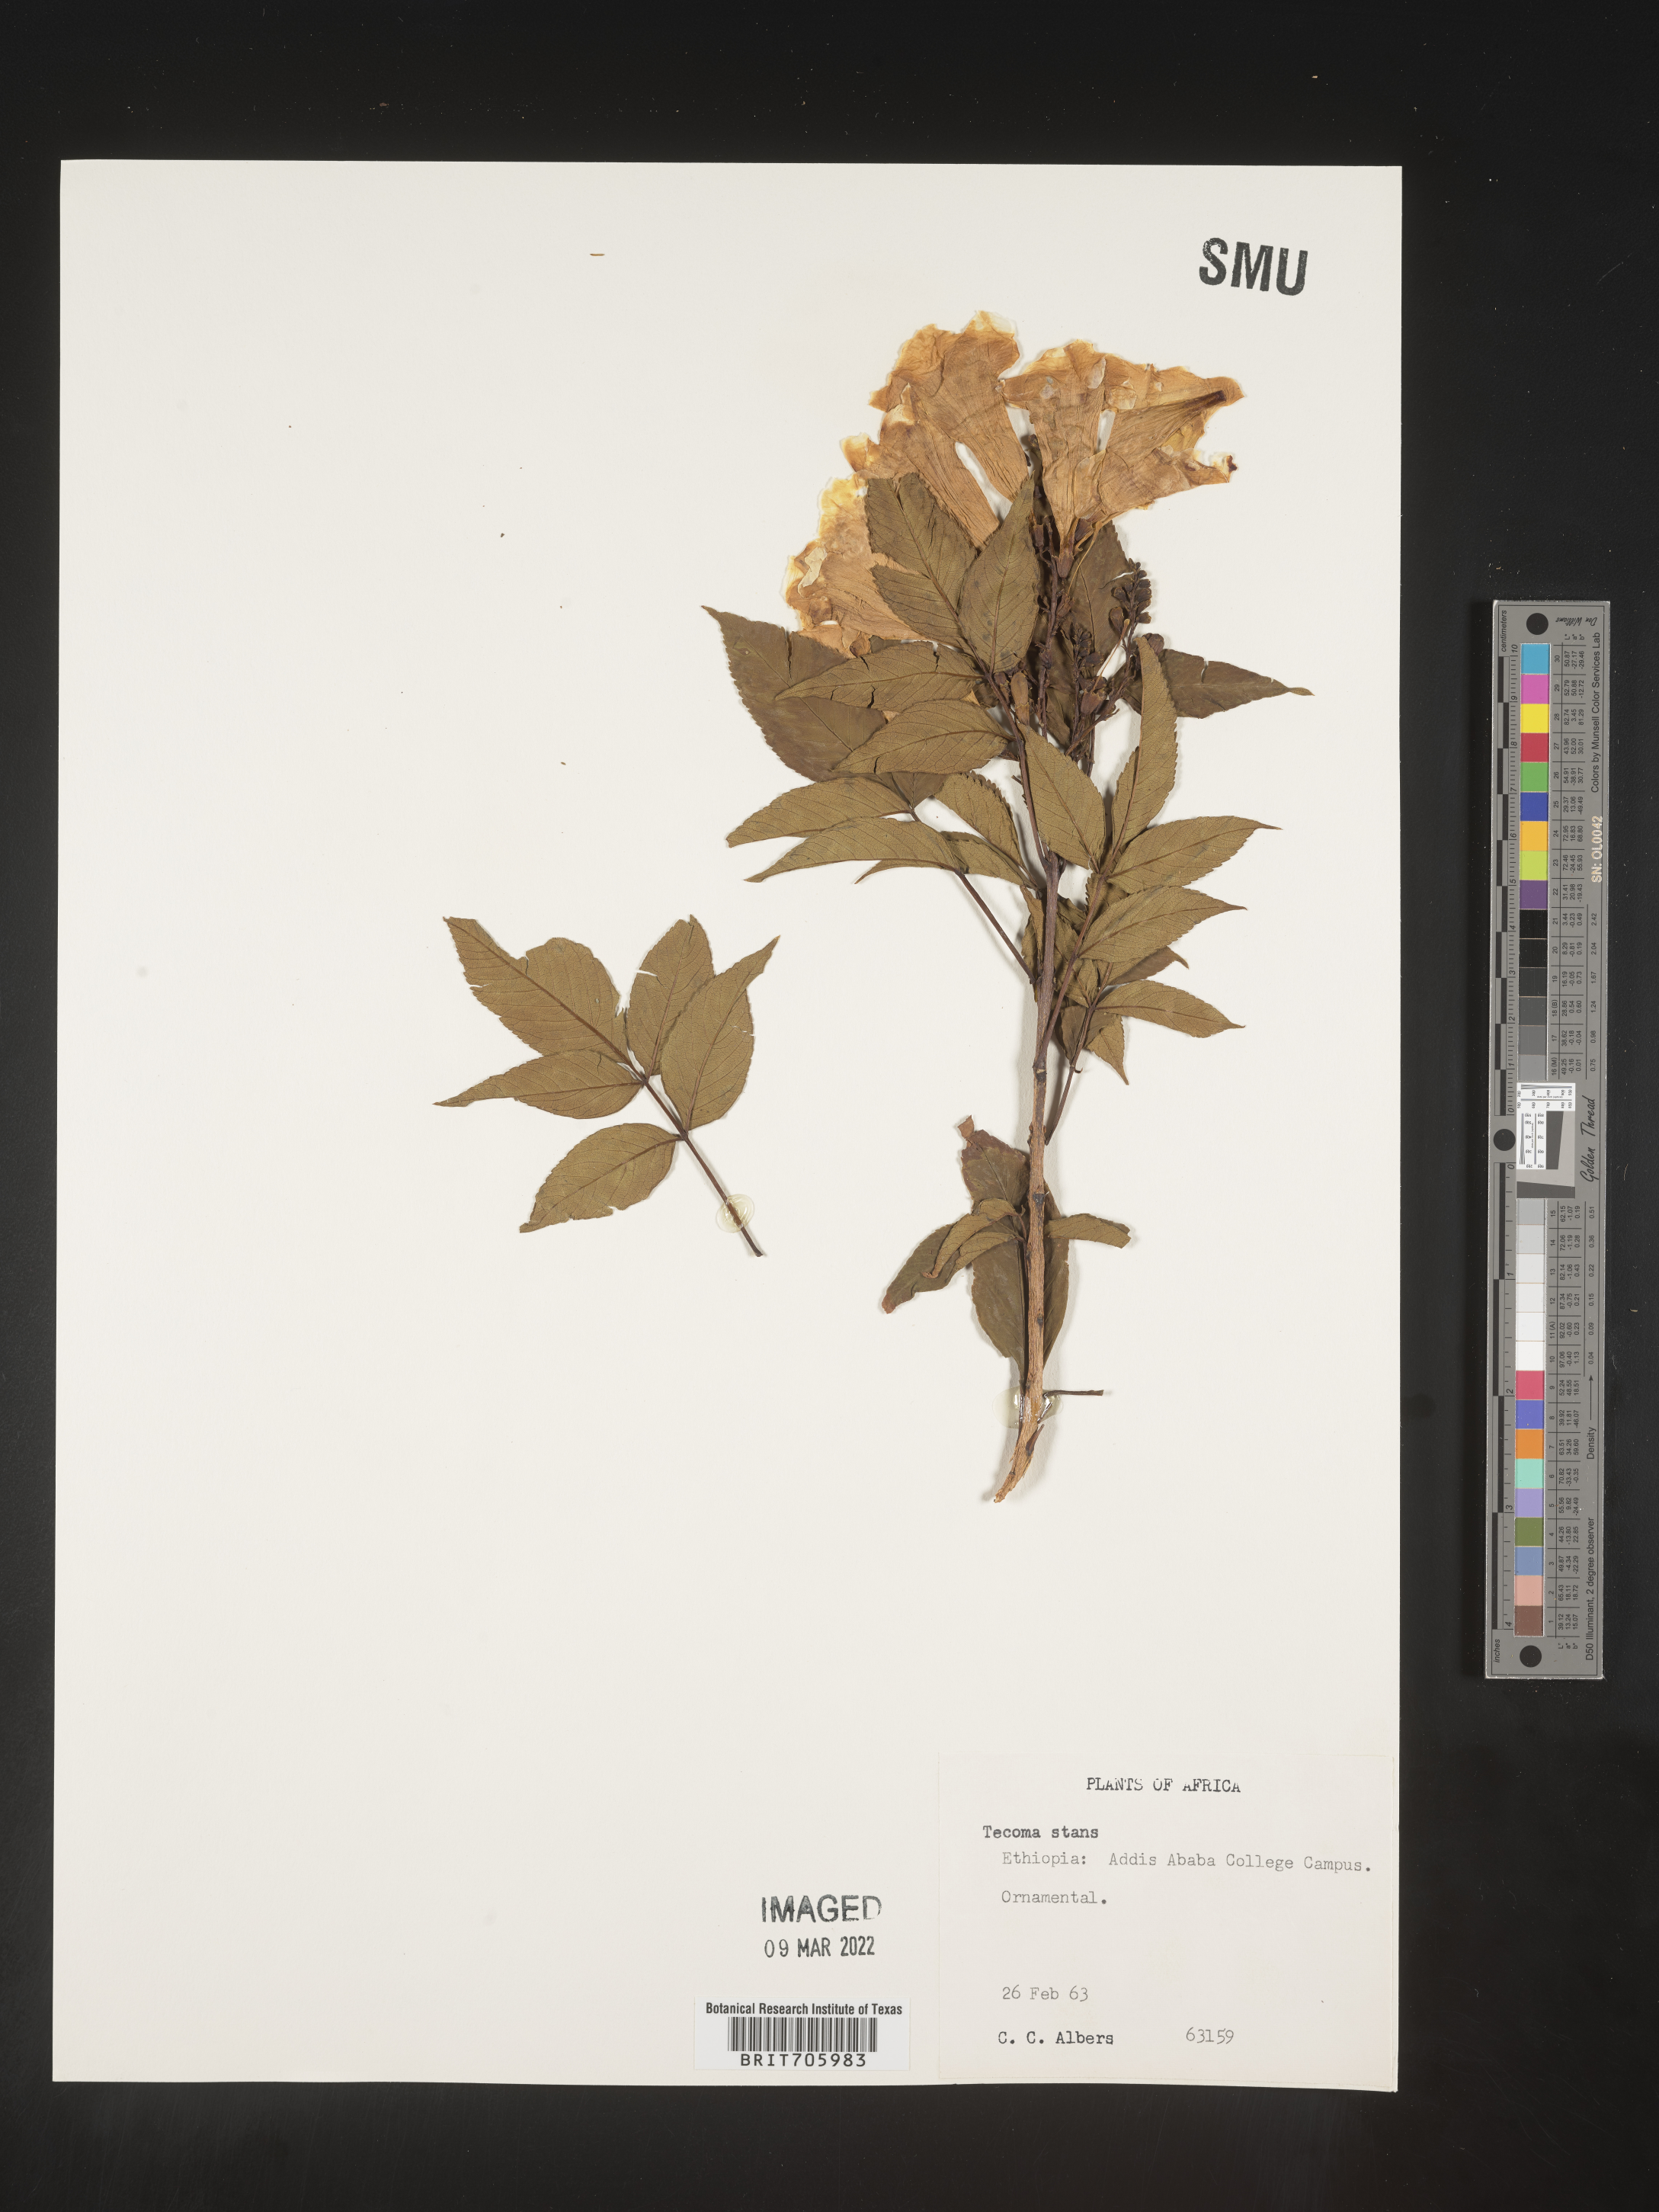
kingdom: Plantae
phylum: Tracheophyta
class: Magnoliopsida
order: Lamiales
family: Bignoniaceae
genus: Tecoma
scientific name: Tecoma
